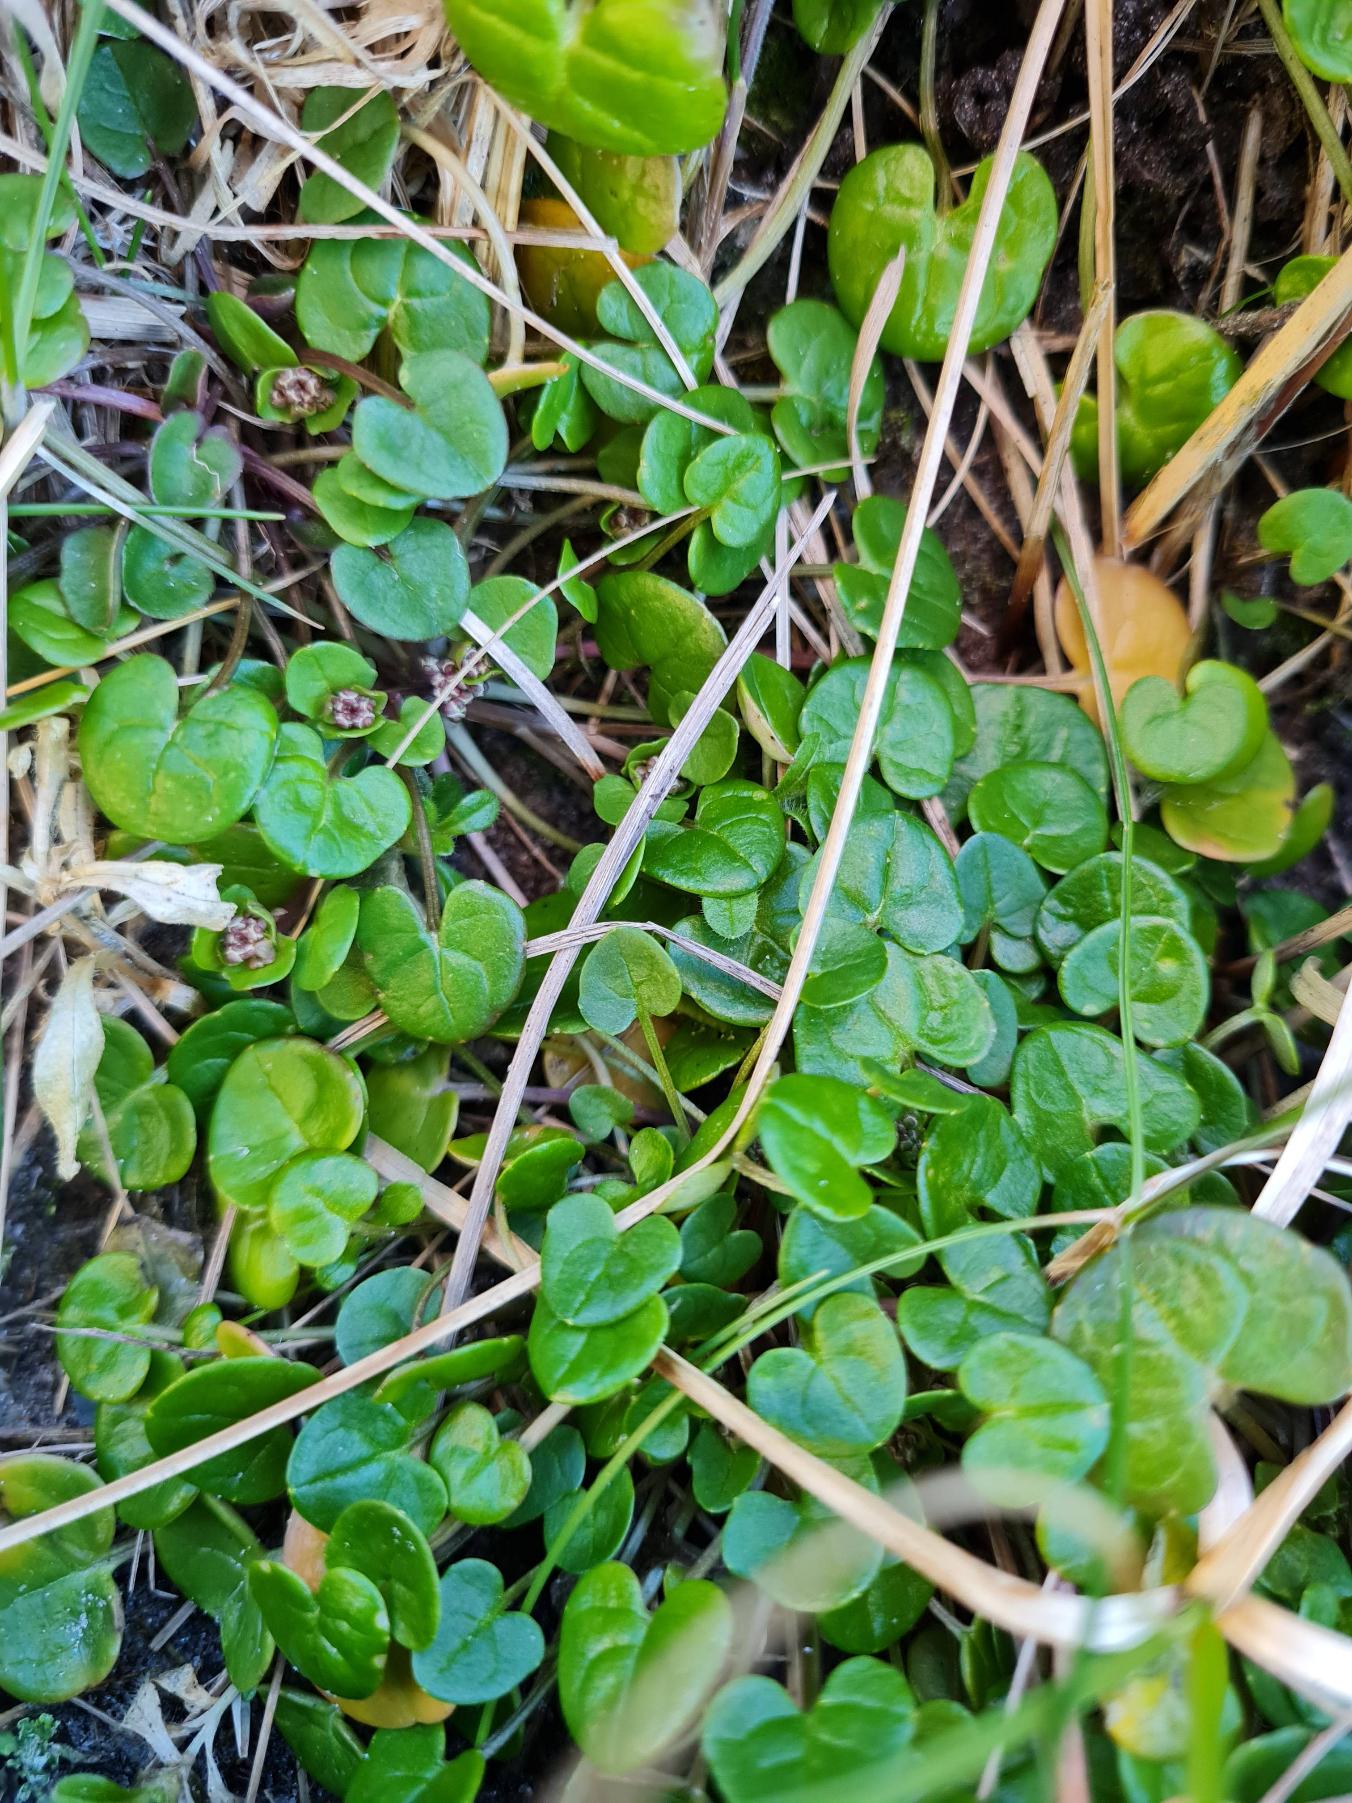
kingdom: Plantae
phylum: Tracheophyta
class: Magnoliopsida
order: Brassicales
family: Brassicaceae
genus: Cochlearia
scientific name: Cochlearia officinalis
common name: Læge-kokleare (underart)
